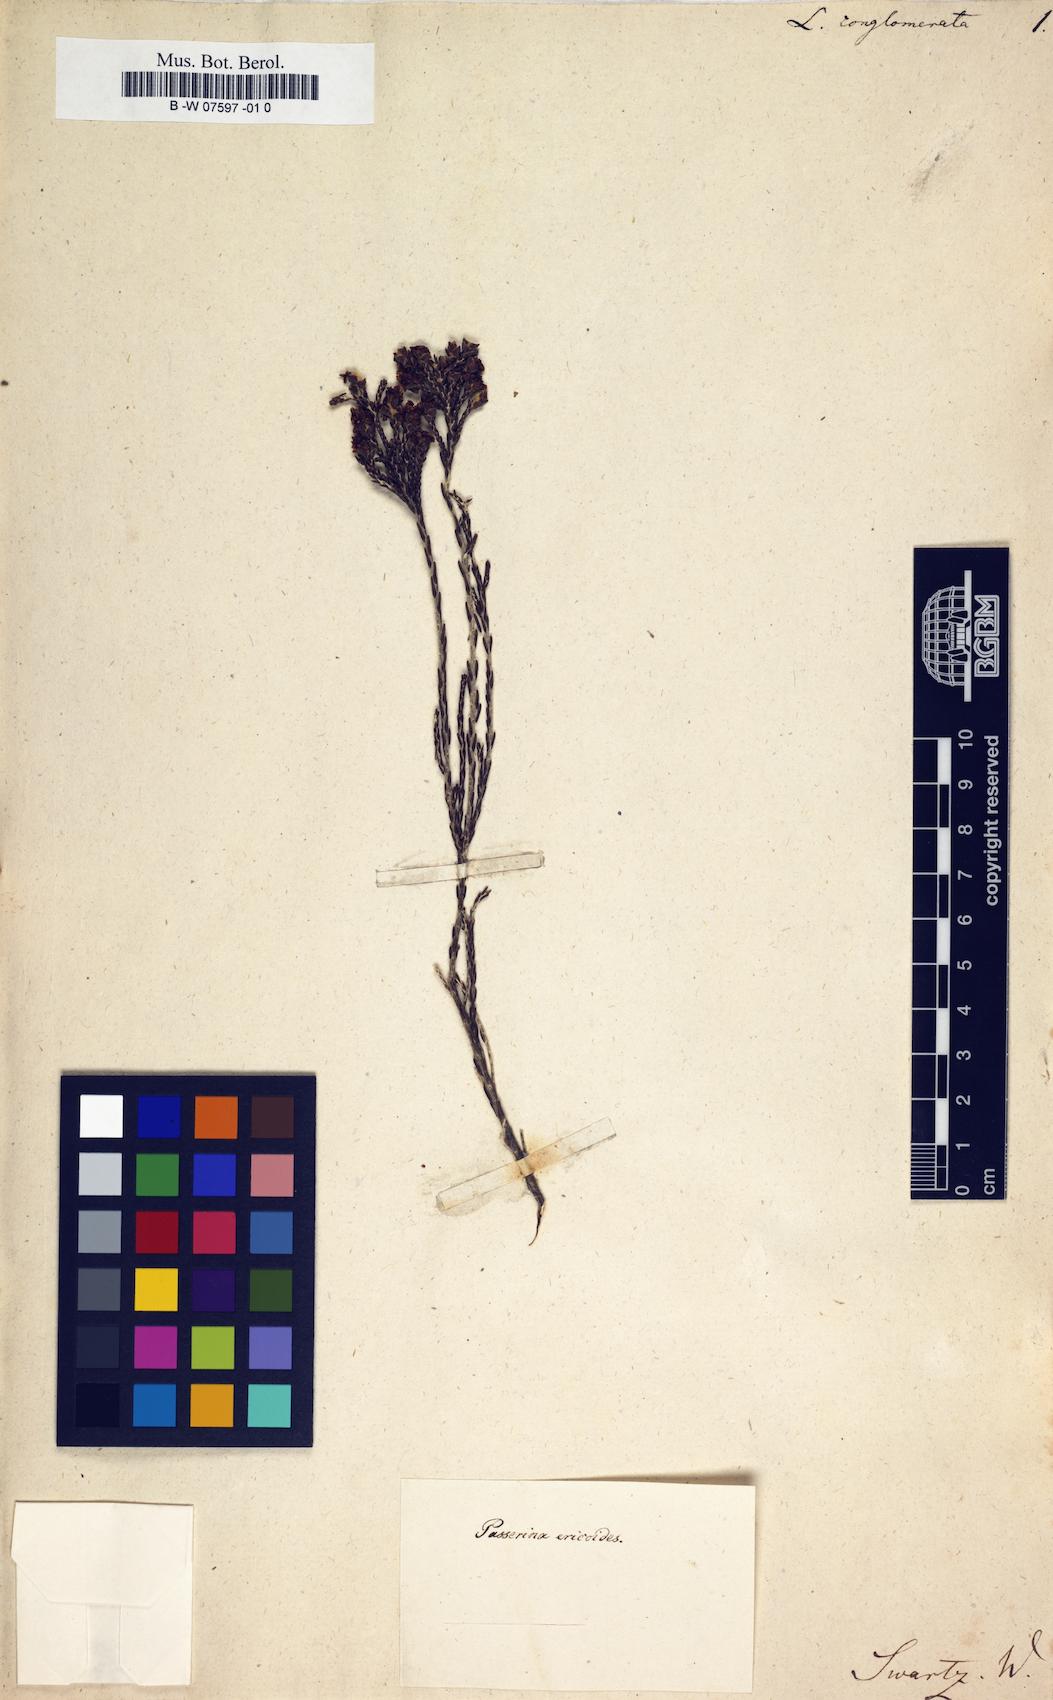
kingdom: Plantae
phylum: Tracheophyta
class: Magnoliopsida
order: Malvales
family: Thymelaeaceae
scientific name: Thymelaeaceae
